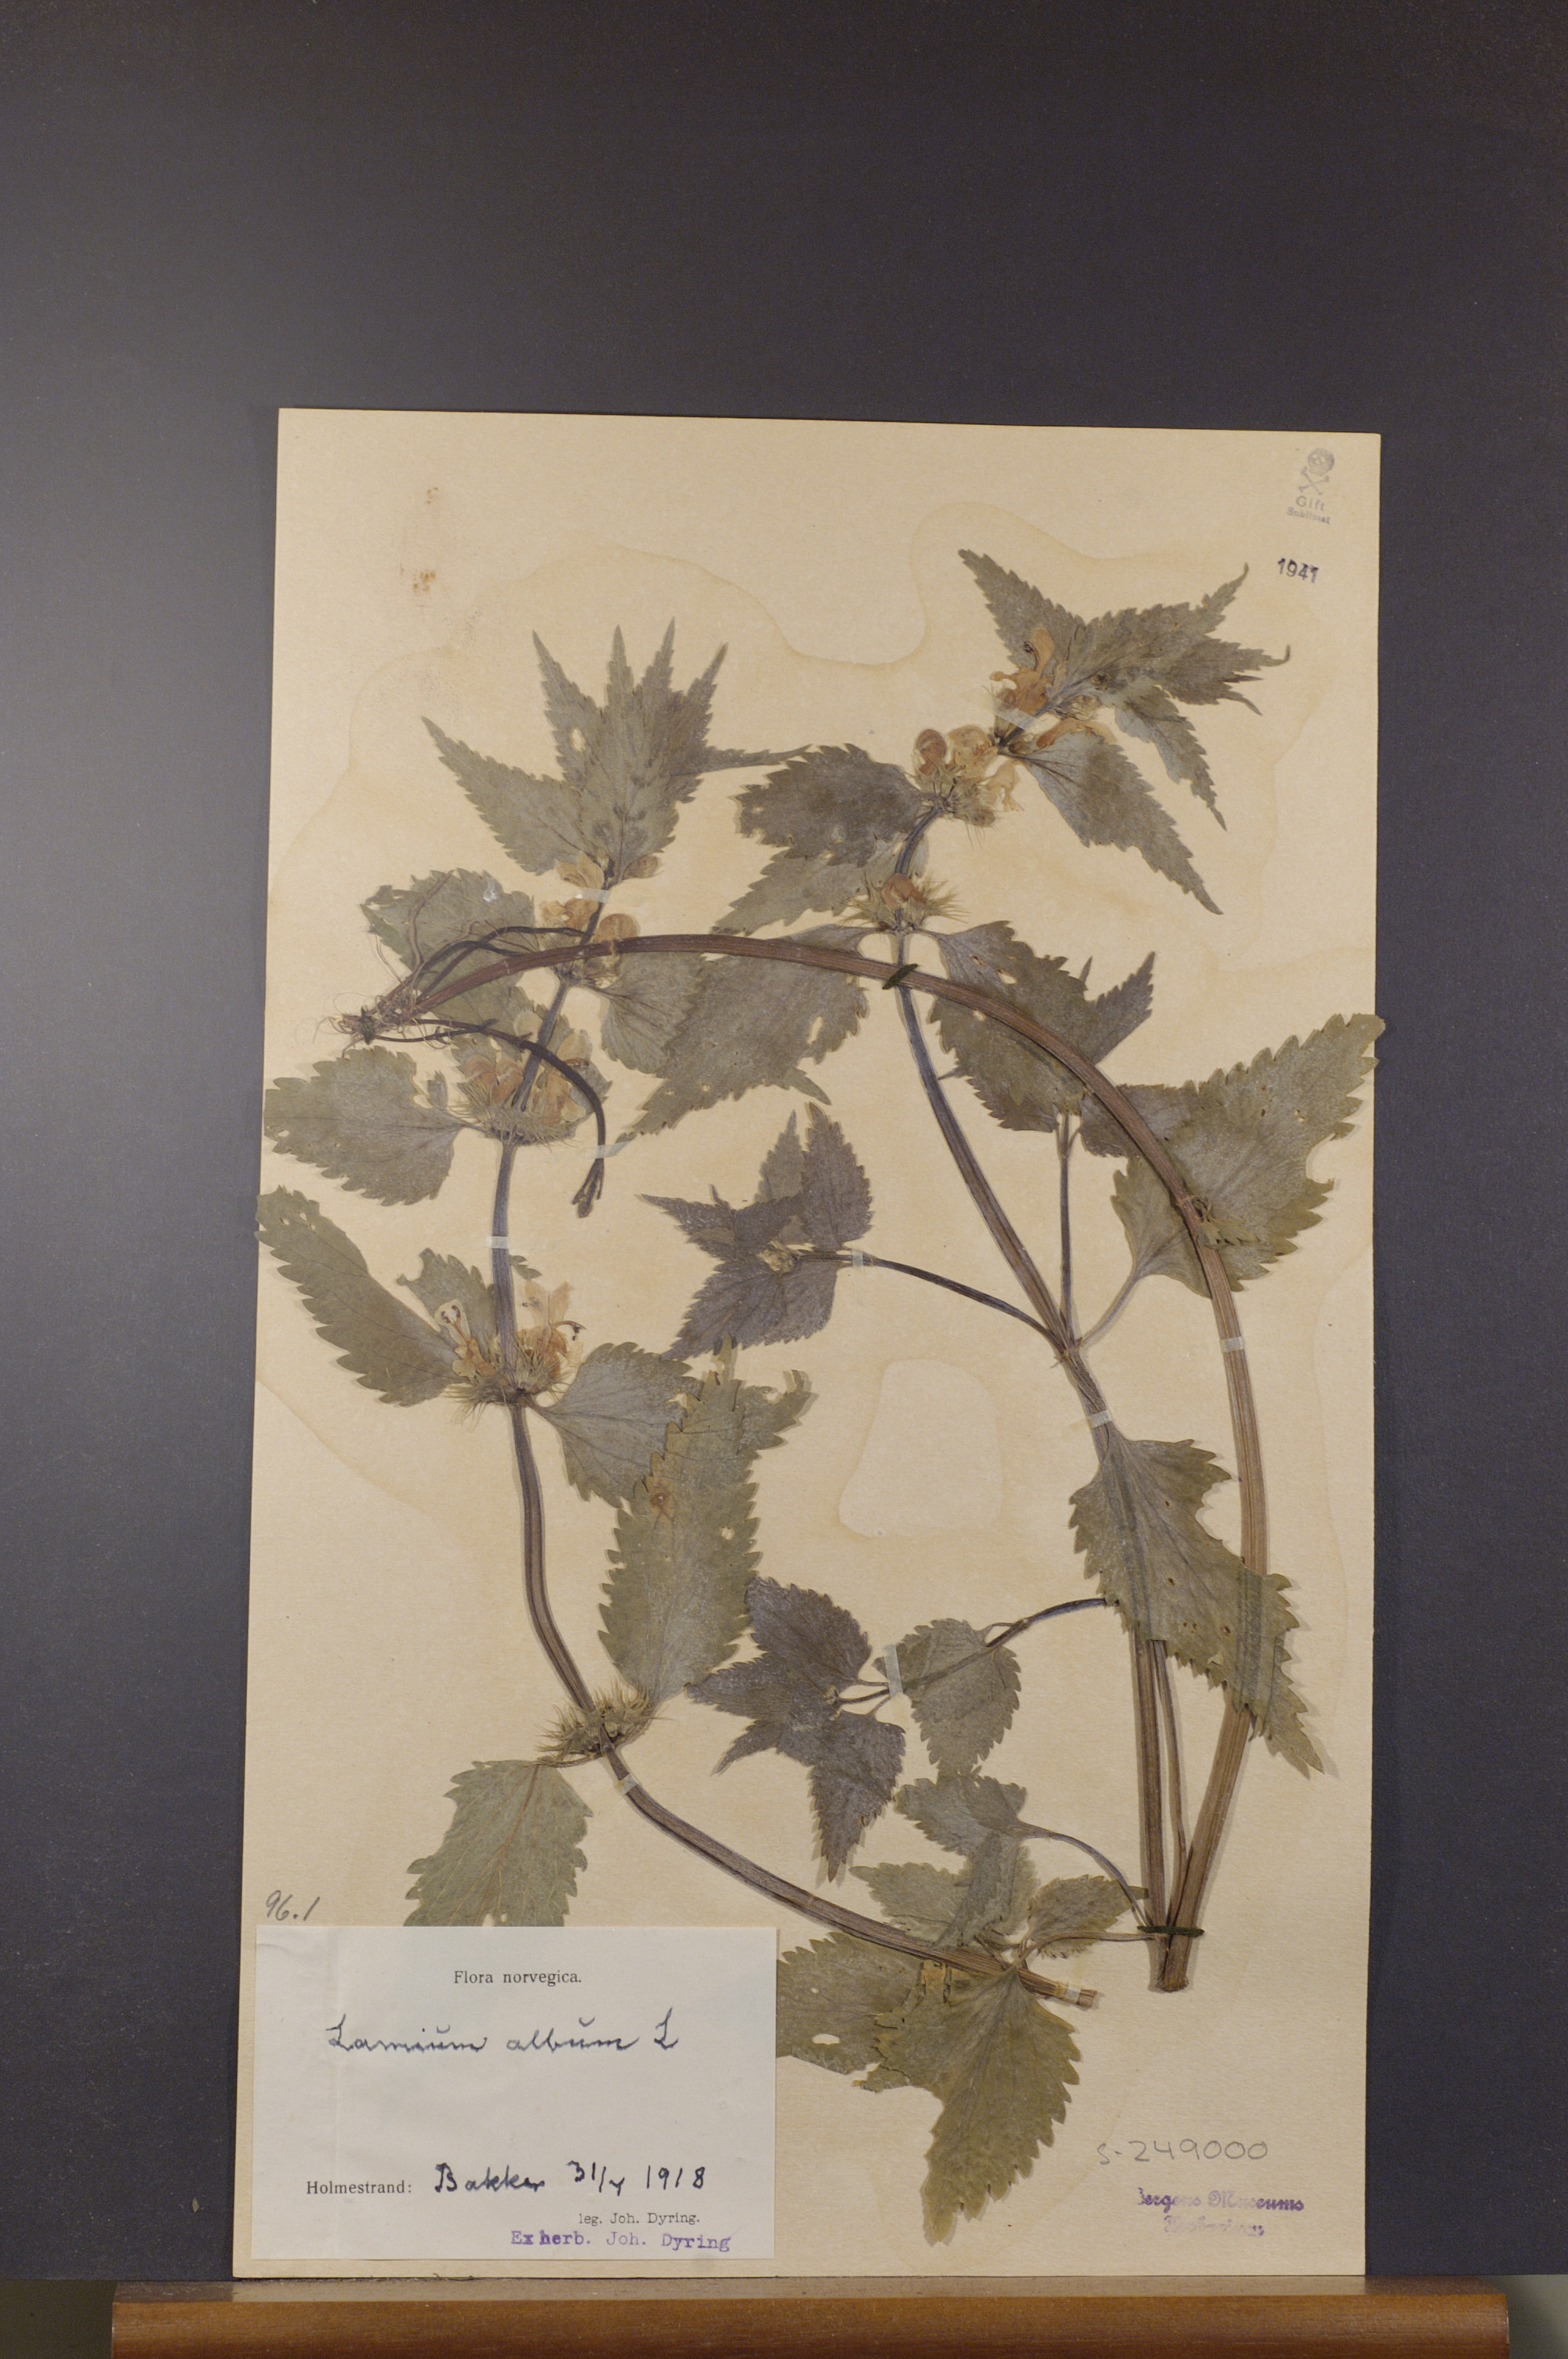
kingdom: Plantae
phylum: Tracheophyta
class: Magnoliopsida
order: Lamiales
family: Lamiaceae
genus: Lamium
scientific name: Lamium album
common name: White dead-nettle
